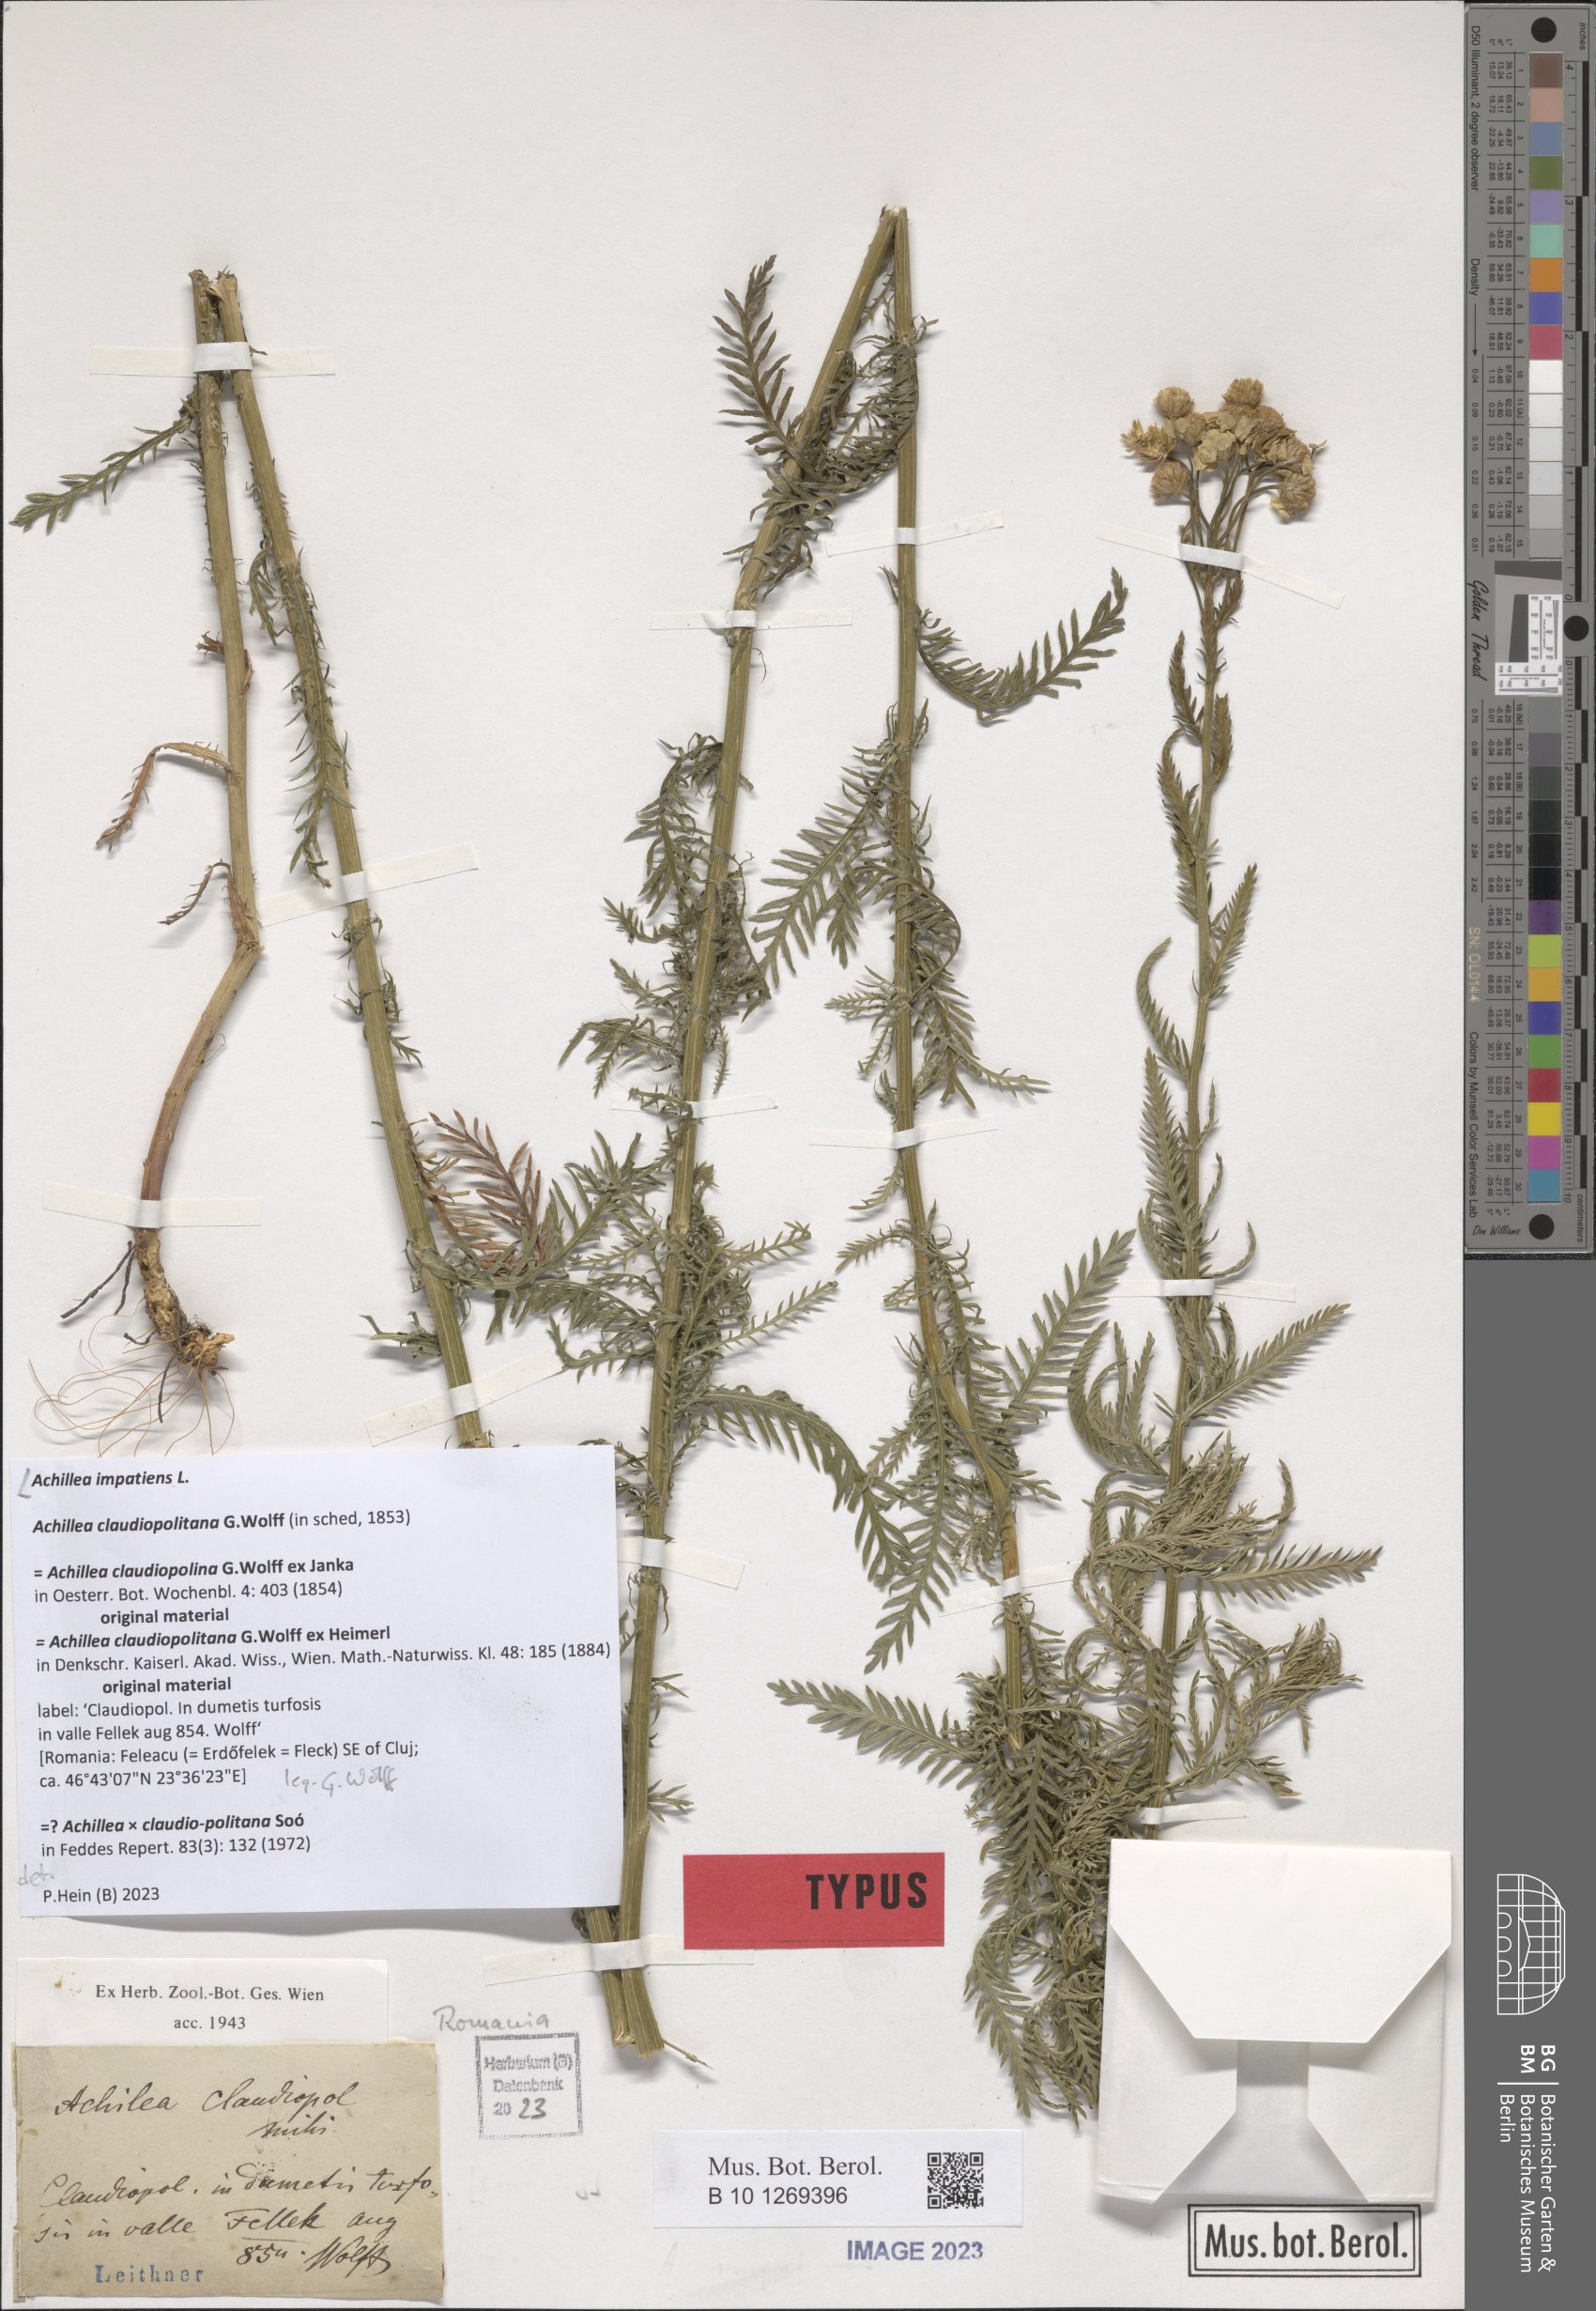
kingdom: Plantae
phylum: Tracheophyta
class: Magnoliopsida
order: Asterales
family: Asteraceae
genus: Achillea
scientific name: Achillea impatiens
